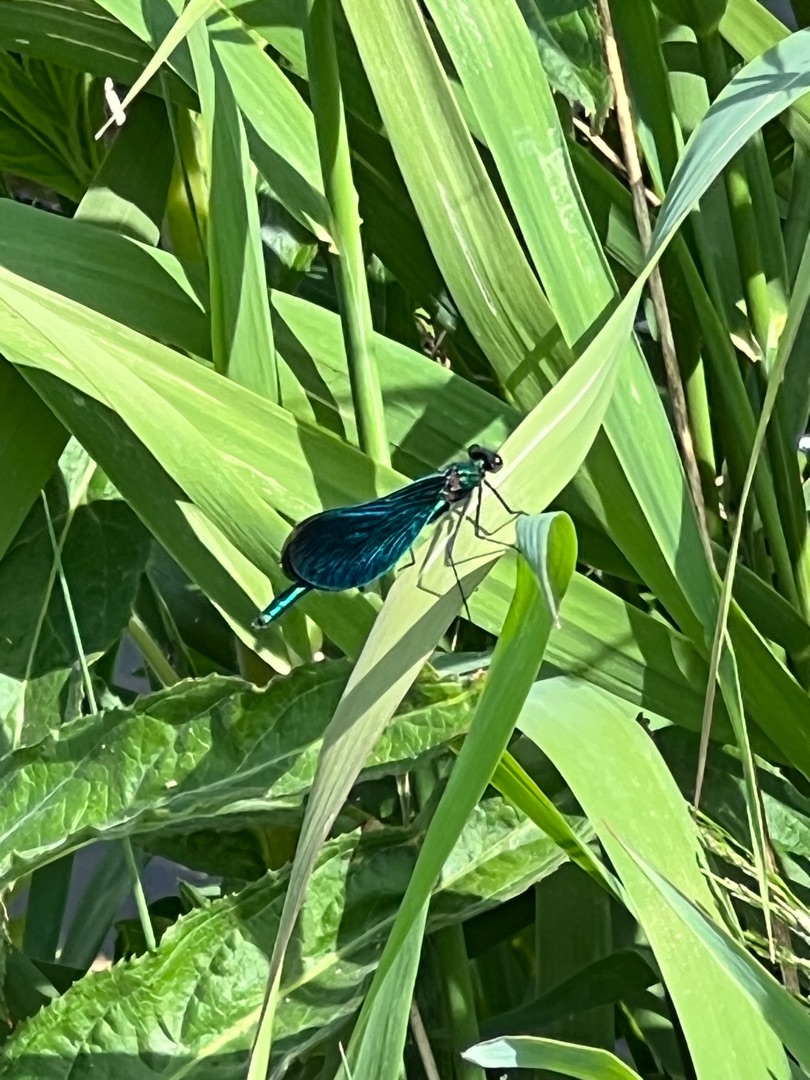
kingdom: Animalia
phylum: Arthropoda
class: Insecta
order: Odonata
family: Calopterygidae
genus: Calopteryx
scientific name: Calopteryx virgo
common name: Blåvinget pragtvandnymfe
